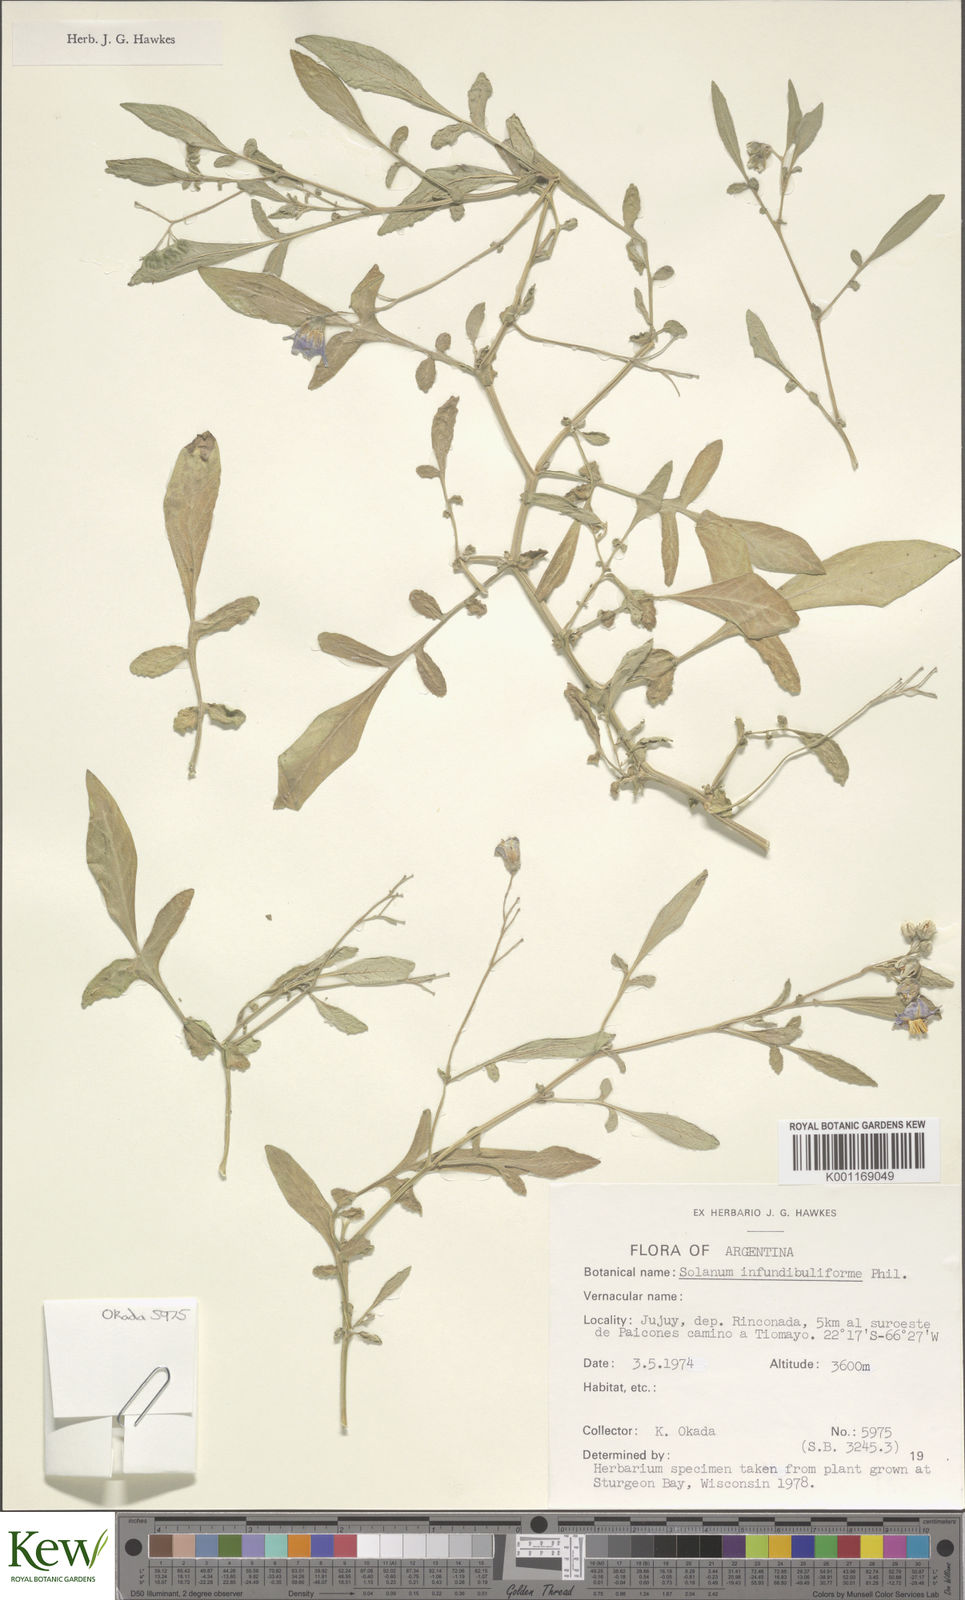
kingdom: Plantae
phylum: Tracheophyta
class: Magnoliopsida
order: Solanales
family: Solanaceae
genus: Solanum
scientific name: Solanum infundibuliforme
